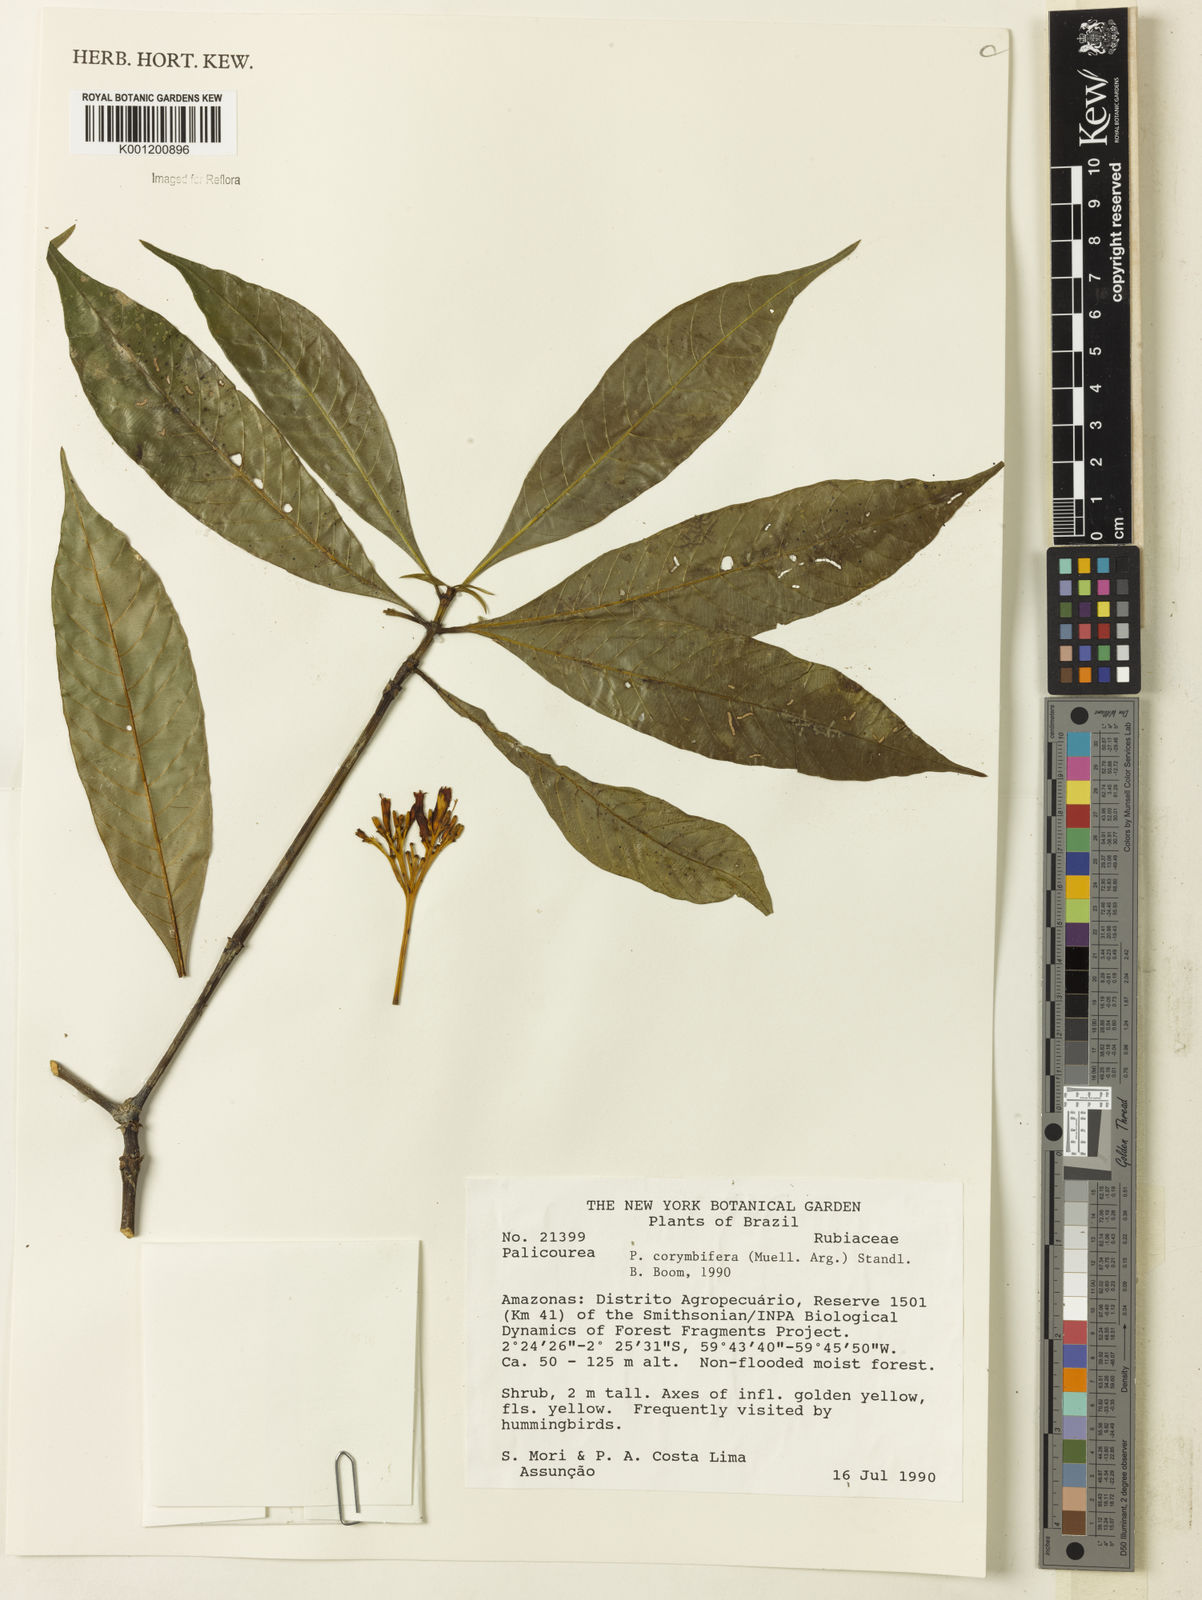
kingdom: Plantae
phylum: Tracheophyta
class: Magnoliopsida
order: Gentianales
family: Rubiaceae
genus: Palicourea
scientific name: Palicourea
